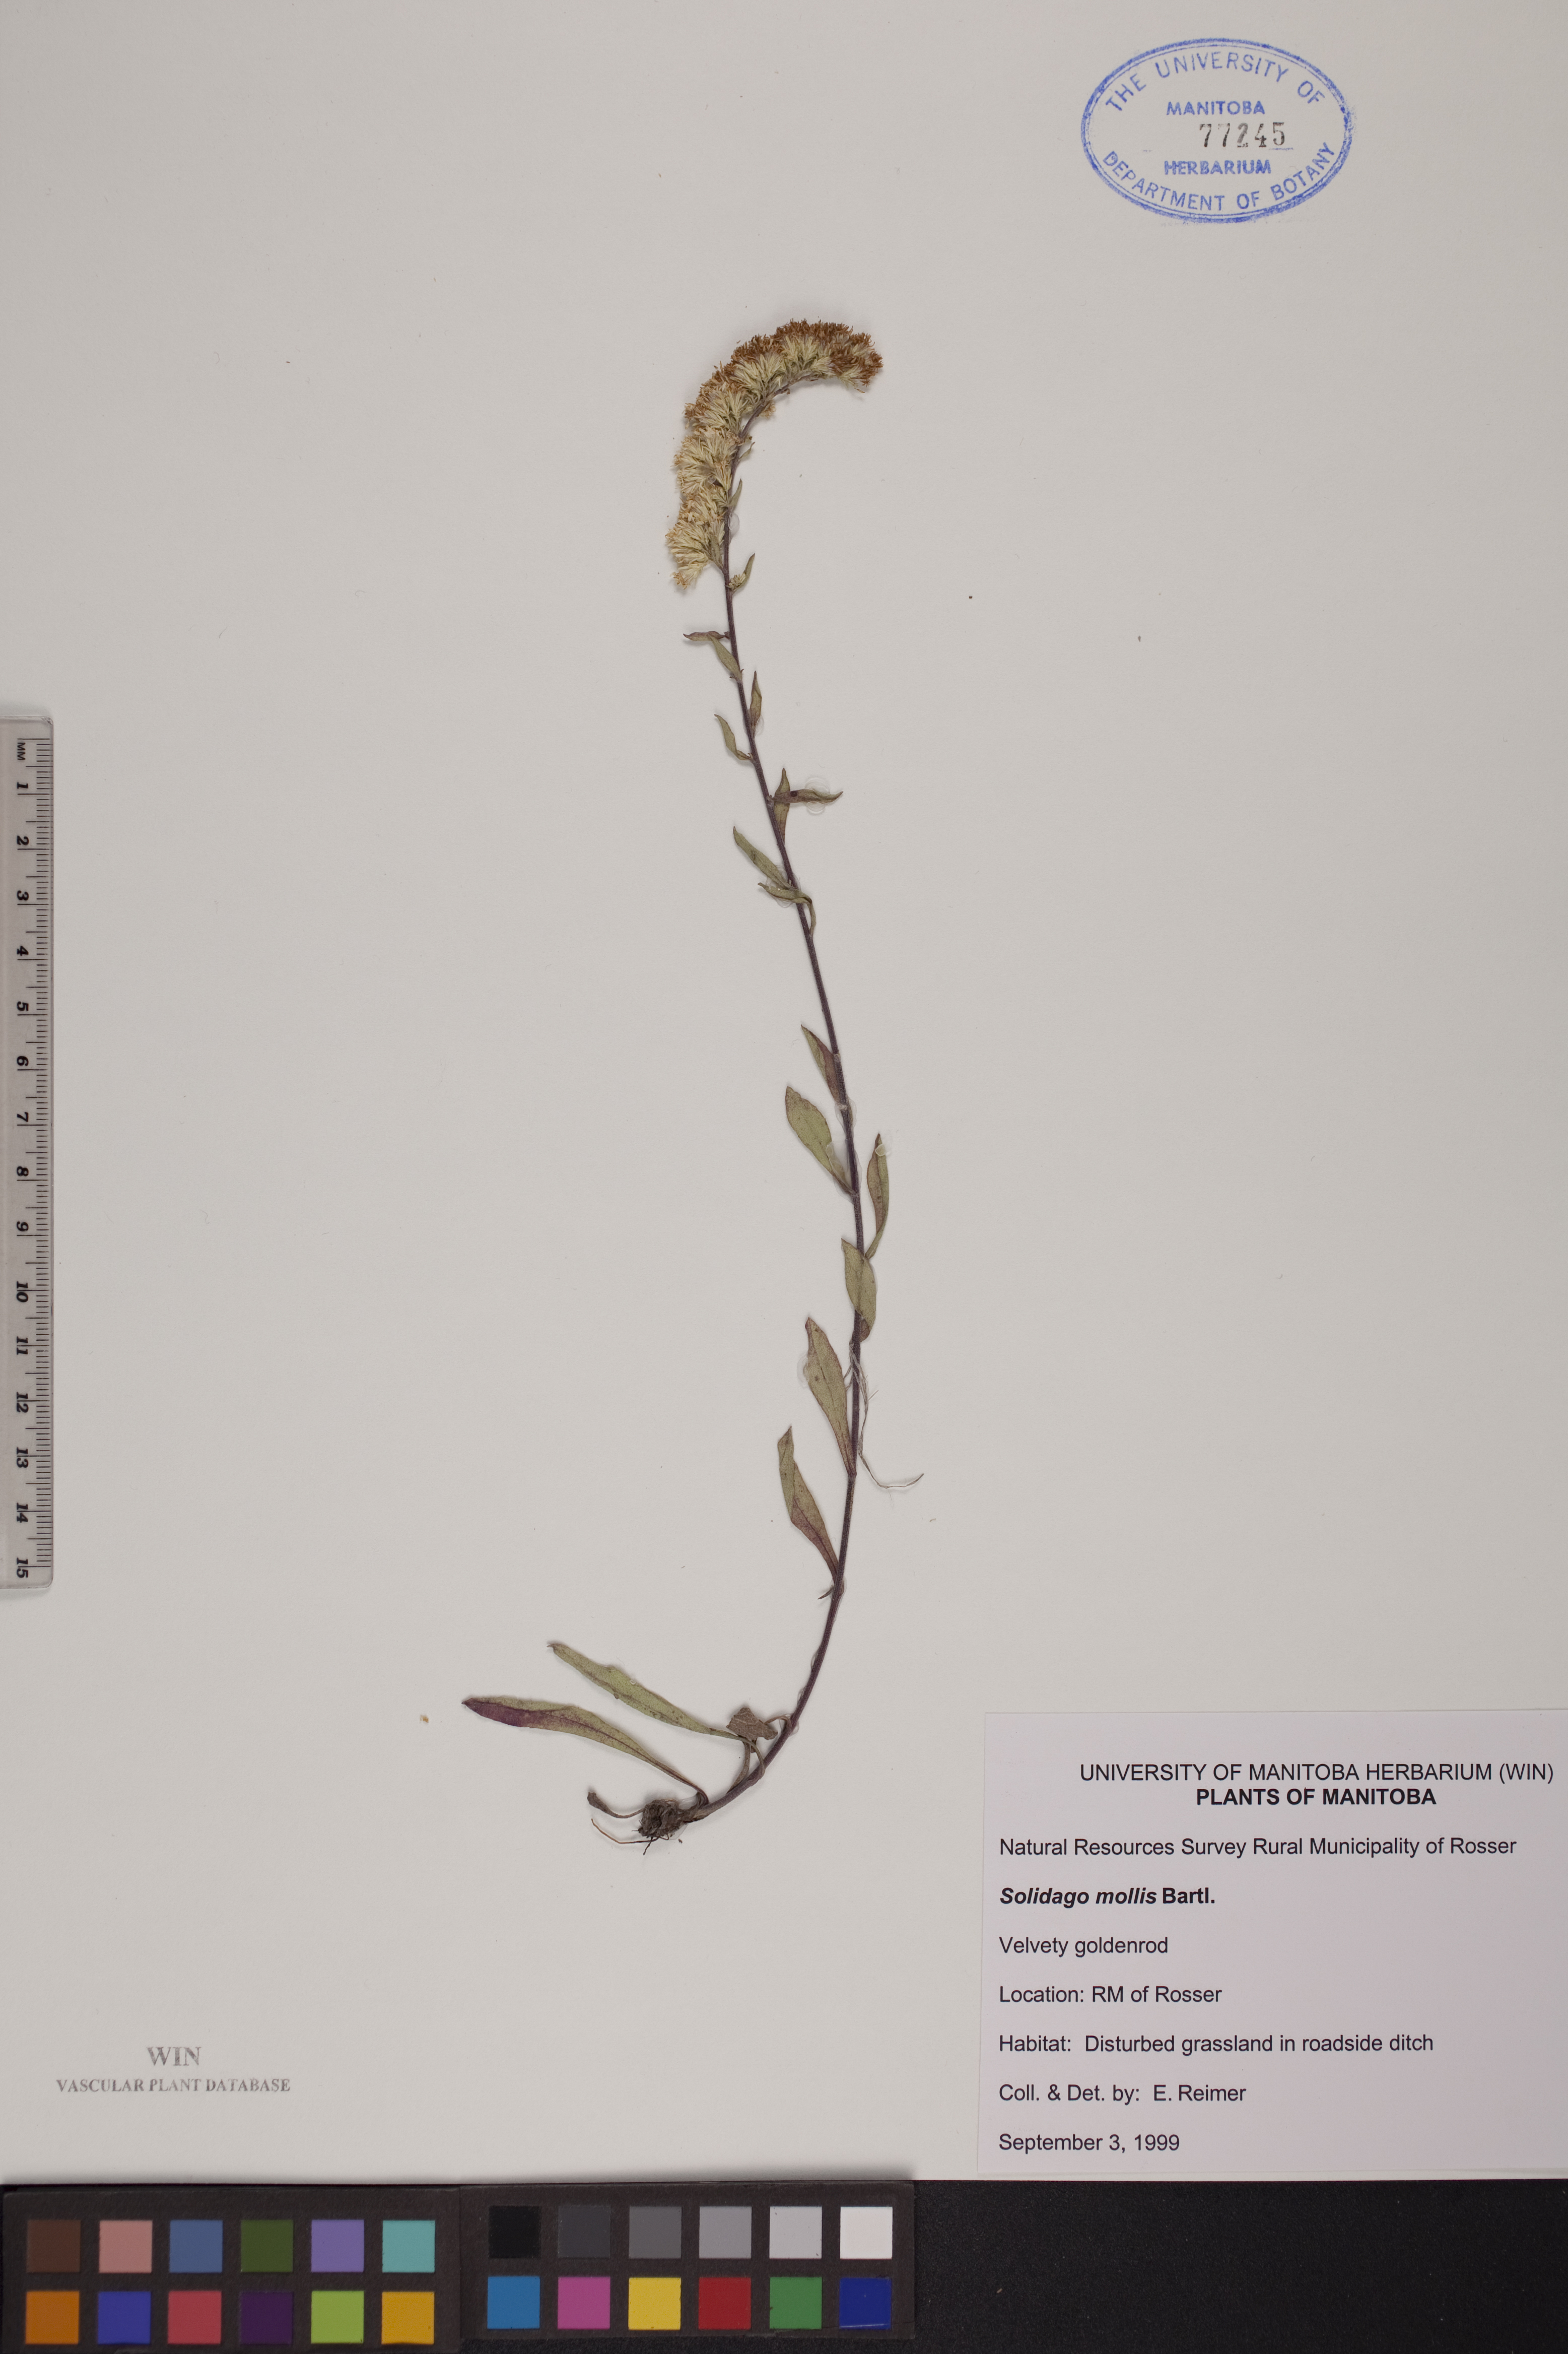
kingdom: Plantae
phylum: Tracheophyta
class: Magnoliopsida
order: Asterales
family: Asteraceae
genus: Solidago
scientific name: Solidago mollis
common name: Ashly goldenrod
